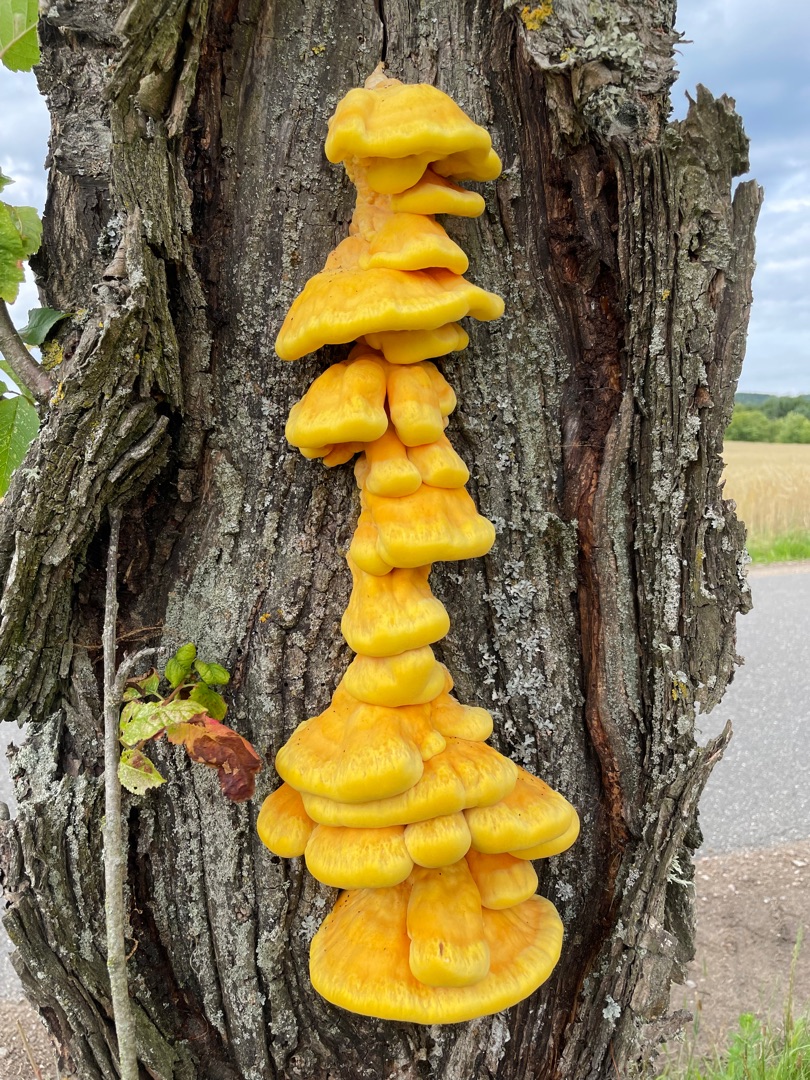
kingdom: Fungi
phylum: Basidiomycota
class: Agaricomycetes
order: Polyporales
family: Laetiporaceae
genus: Laetiporus
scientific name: Laetiporus sulphureus
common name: Svovlporesvamp
